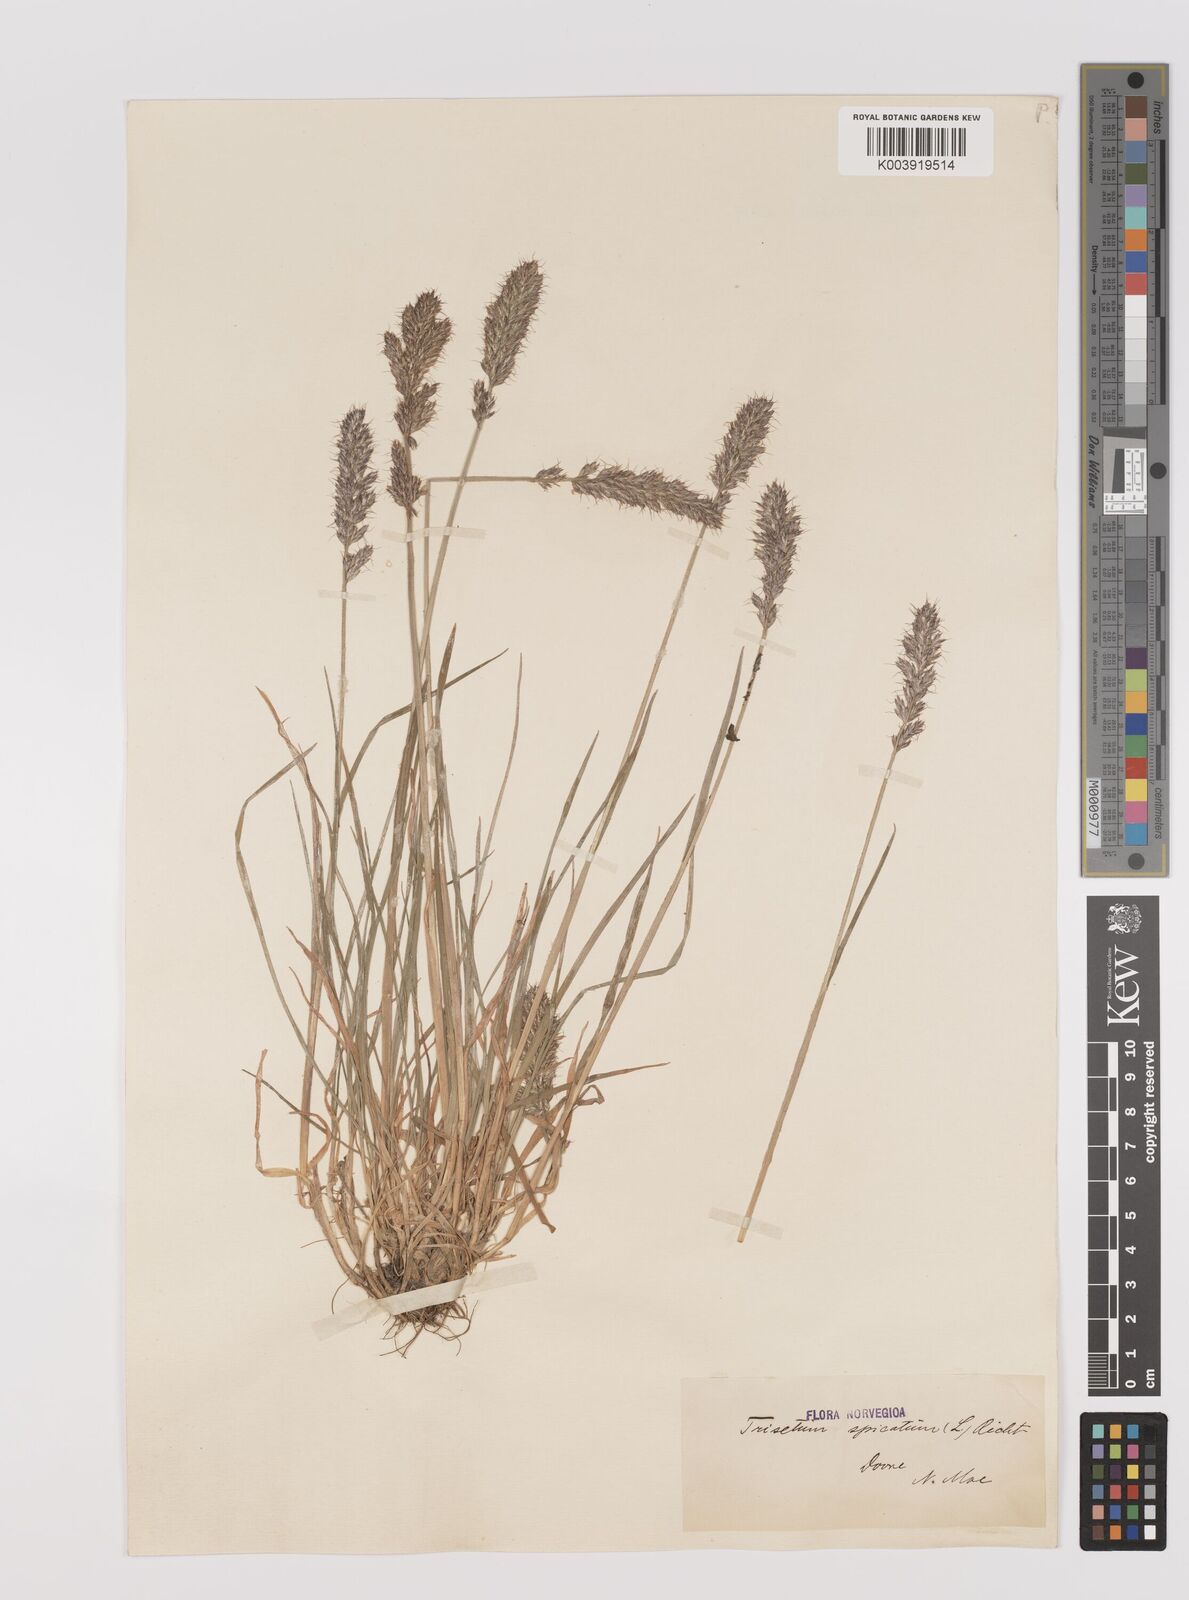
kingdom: Plantae
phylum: Tracheophyta
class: Liliopsida
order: Poales
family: Poaceae
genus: Koeleria
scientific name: Koeleria spicata
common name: Mountain trisetum
